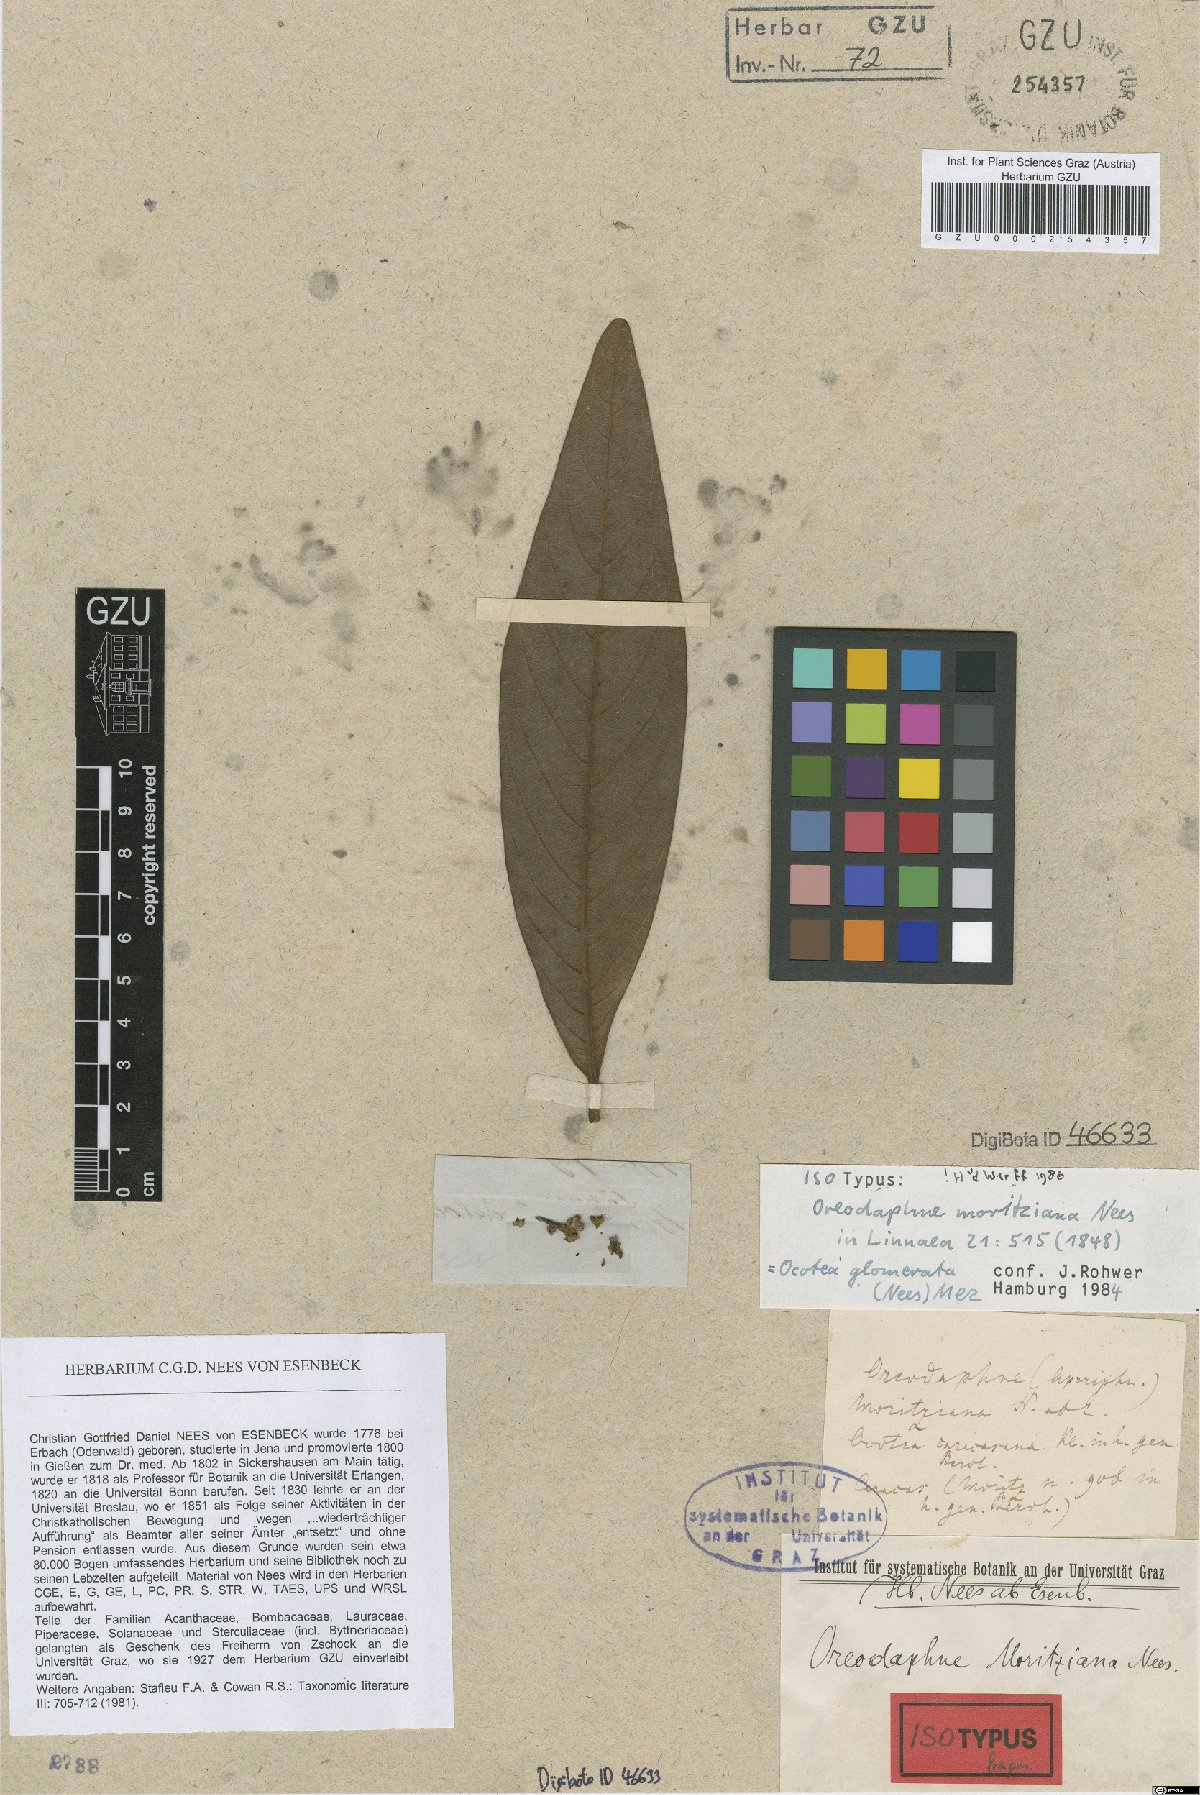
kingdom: Plantae
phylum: Tracheophyta
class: Magnoliopsida
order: Laurales
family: Lauraceae
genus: Ocotea
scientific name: Ocotea glomerata
